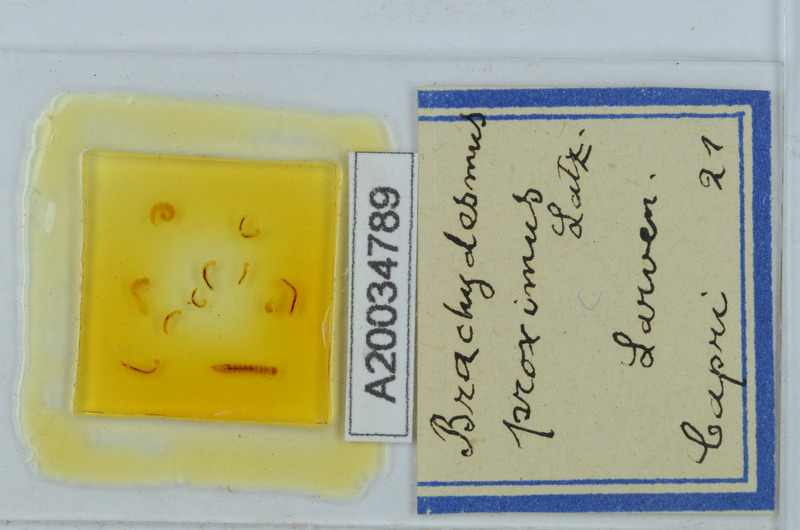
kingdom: Animalia
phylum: Arthropoda
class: Diplopoda
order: Polydesmida
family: Polydesmidae
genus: Brachydesmus
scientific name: Brachydesmus proximus
